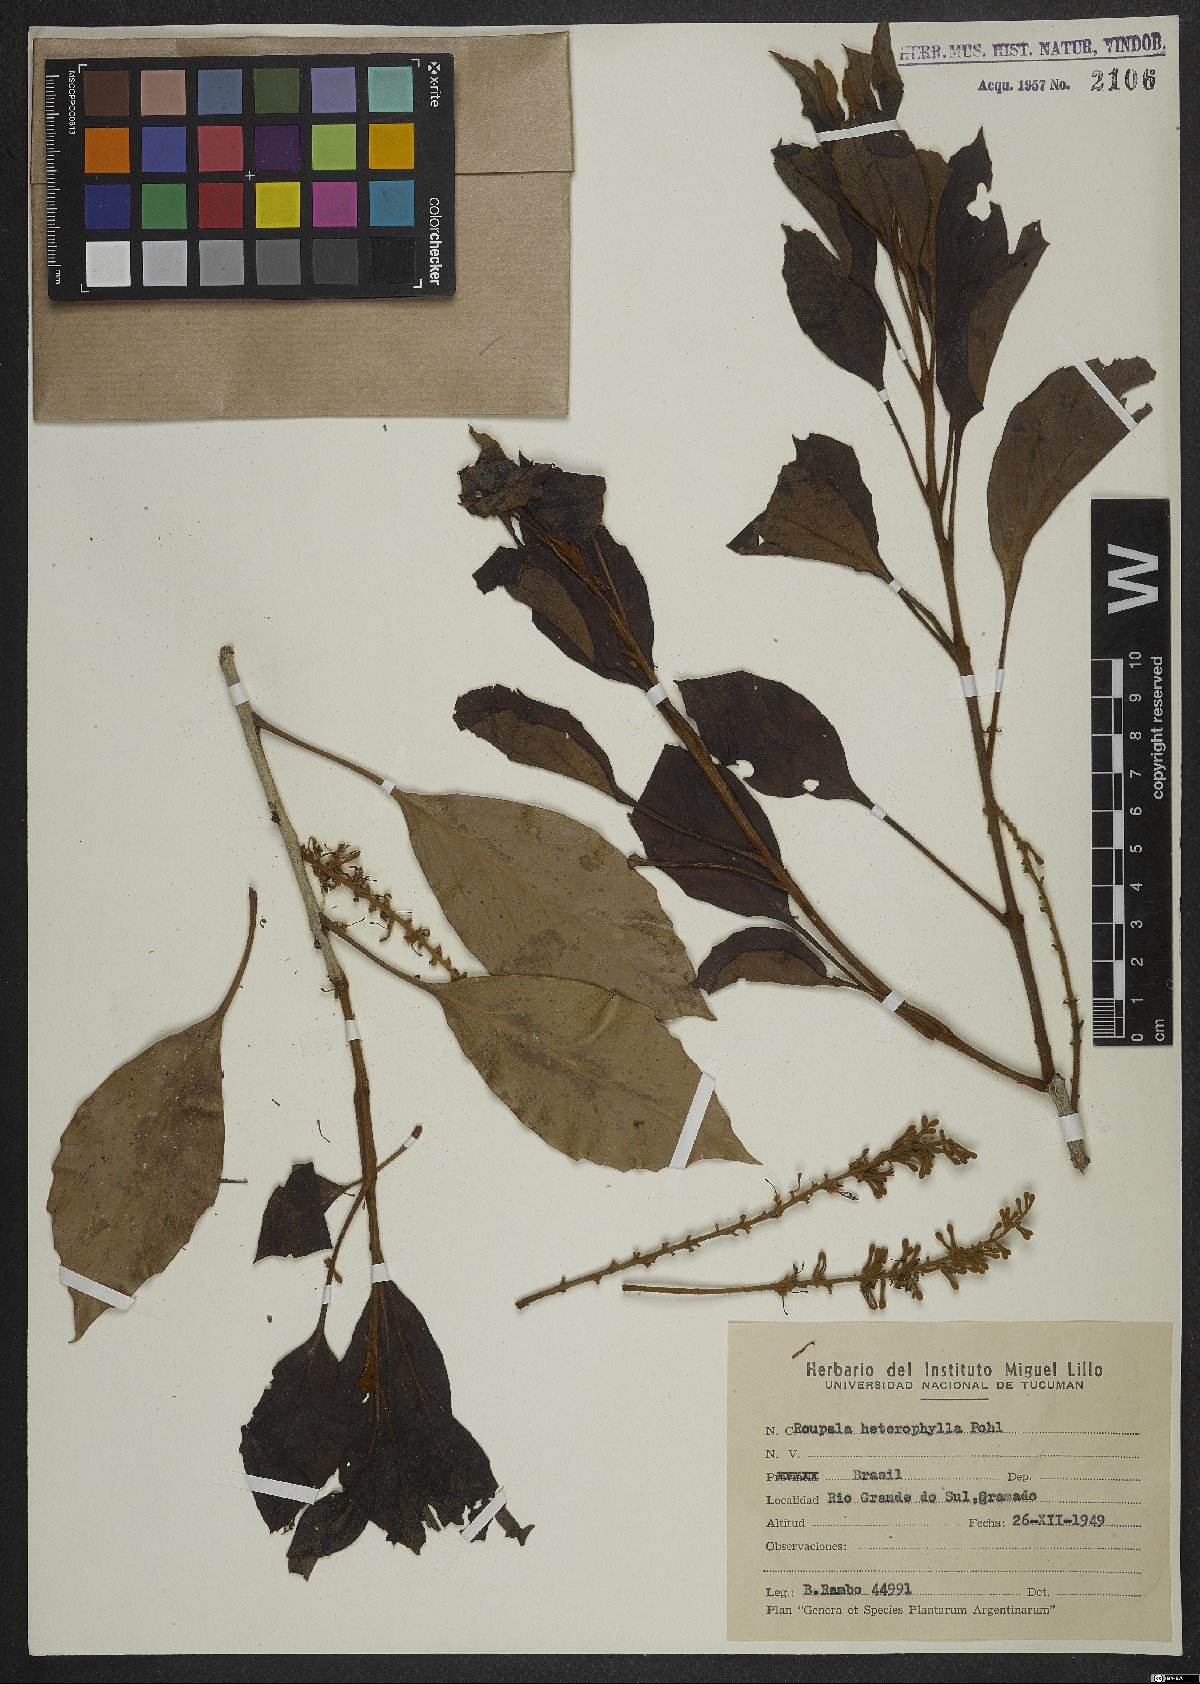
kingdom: Plantae
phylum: Tracheophyta
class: Magnoliopsida
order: Proteales
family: Proteaceae
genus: Roupala
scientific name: Roupala montana
